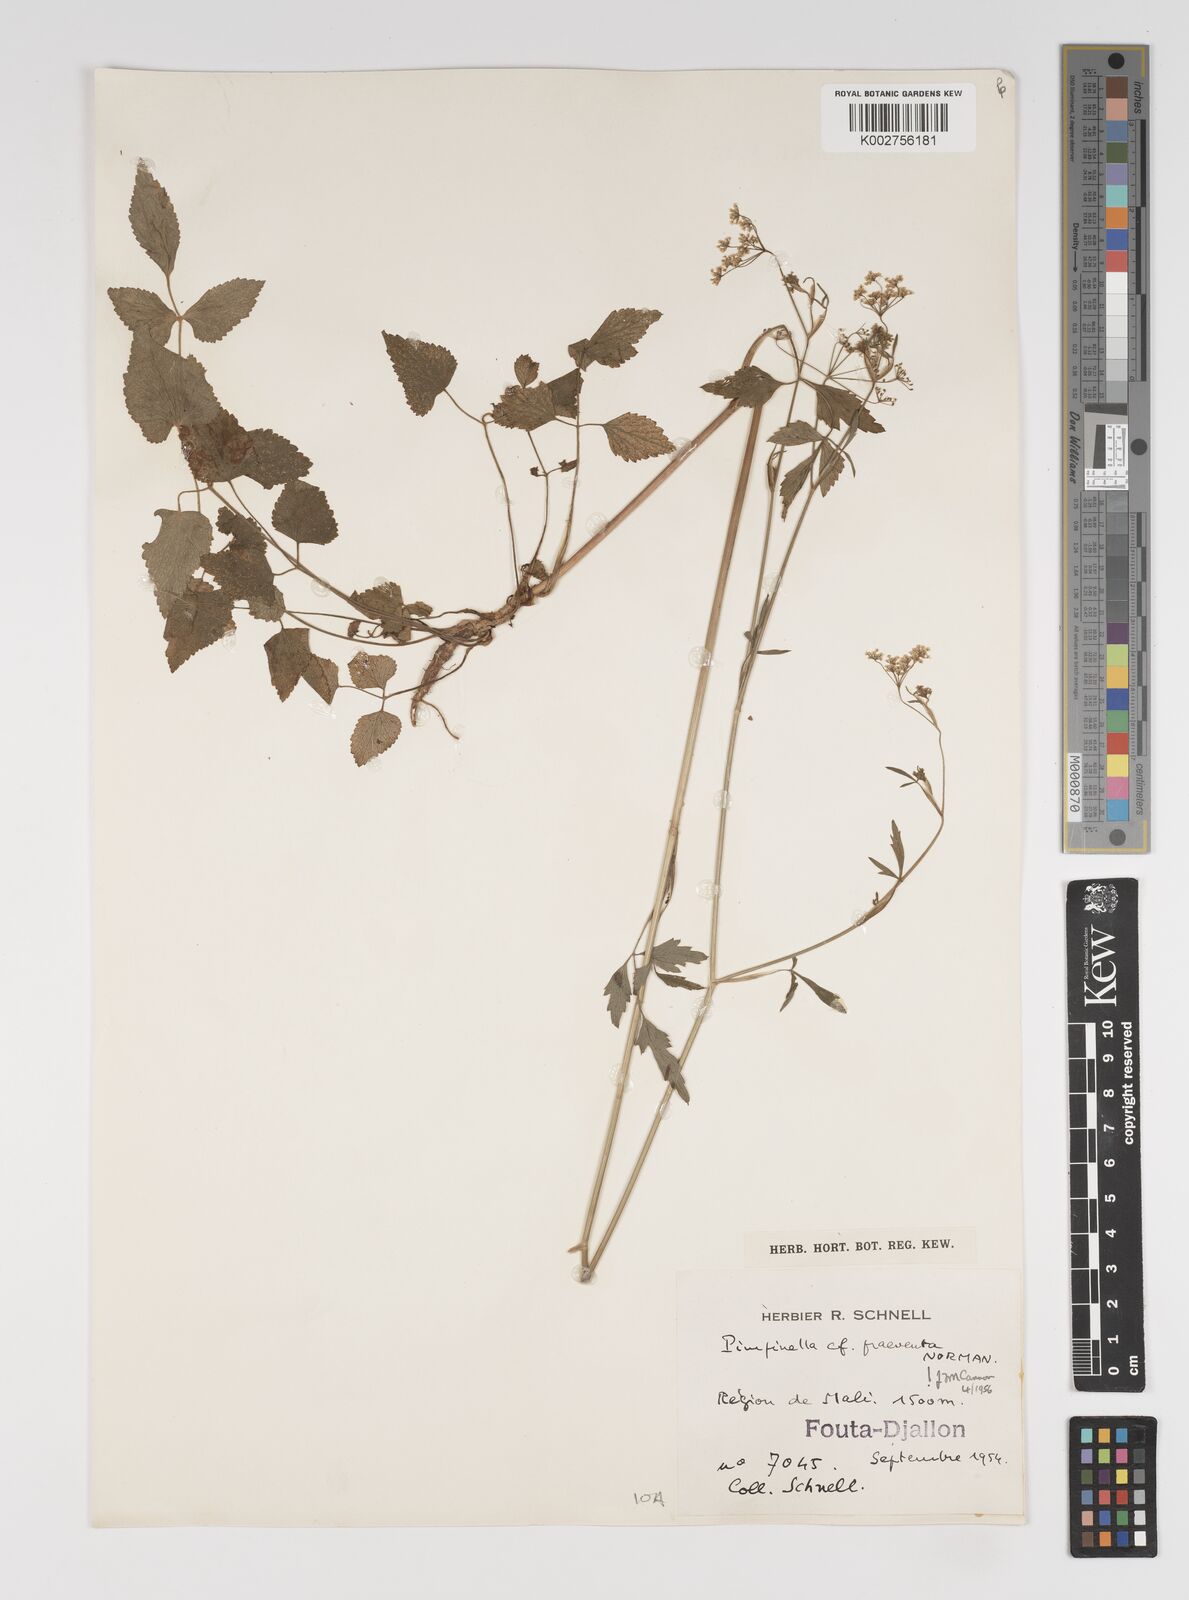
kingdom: Plantae
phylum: Tracheophyta
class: Magnoliopsida
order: Apiales
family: Apiaceae
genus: Pimpinella
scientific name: Pimpinella hirtella
